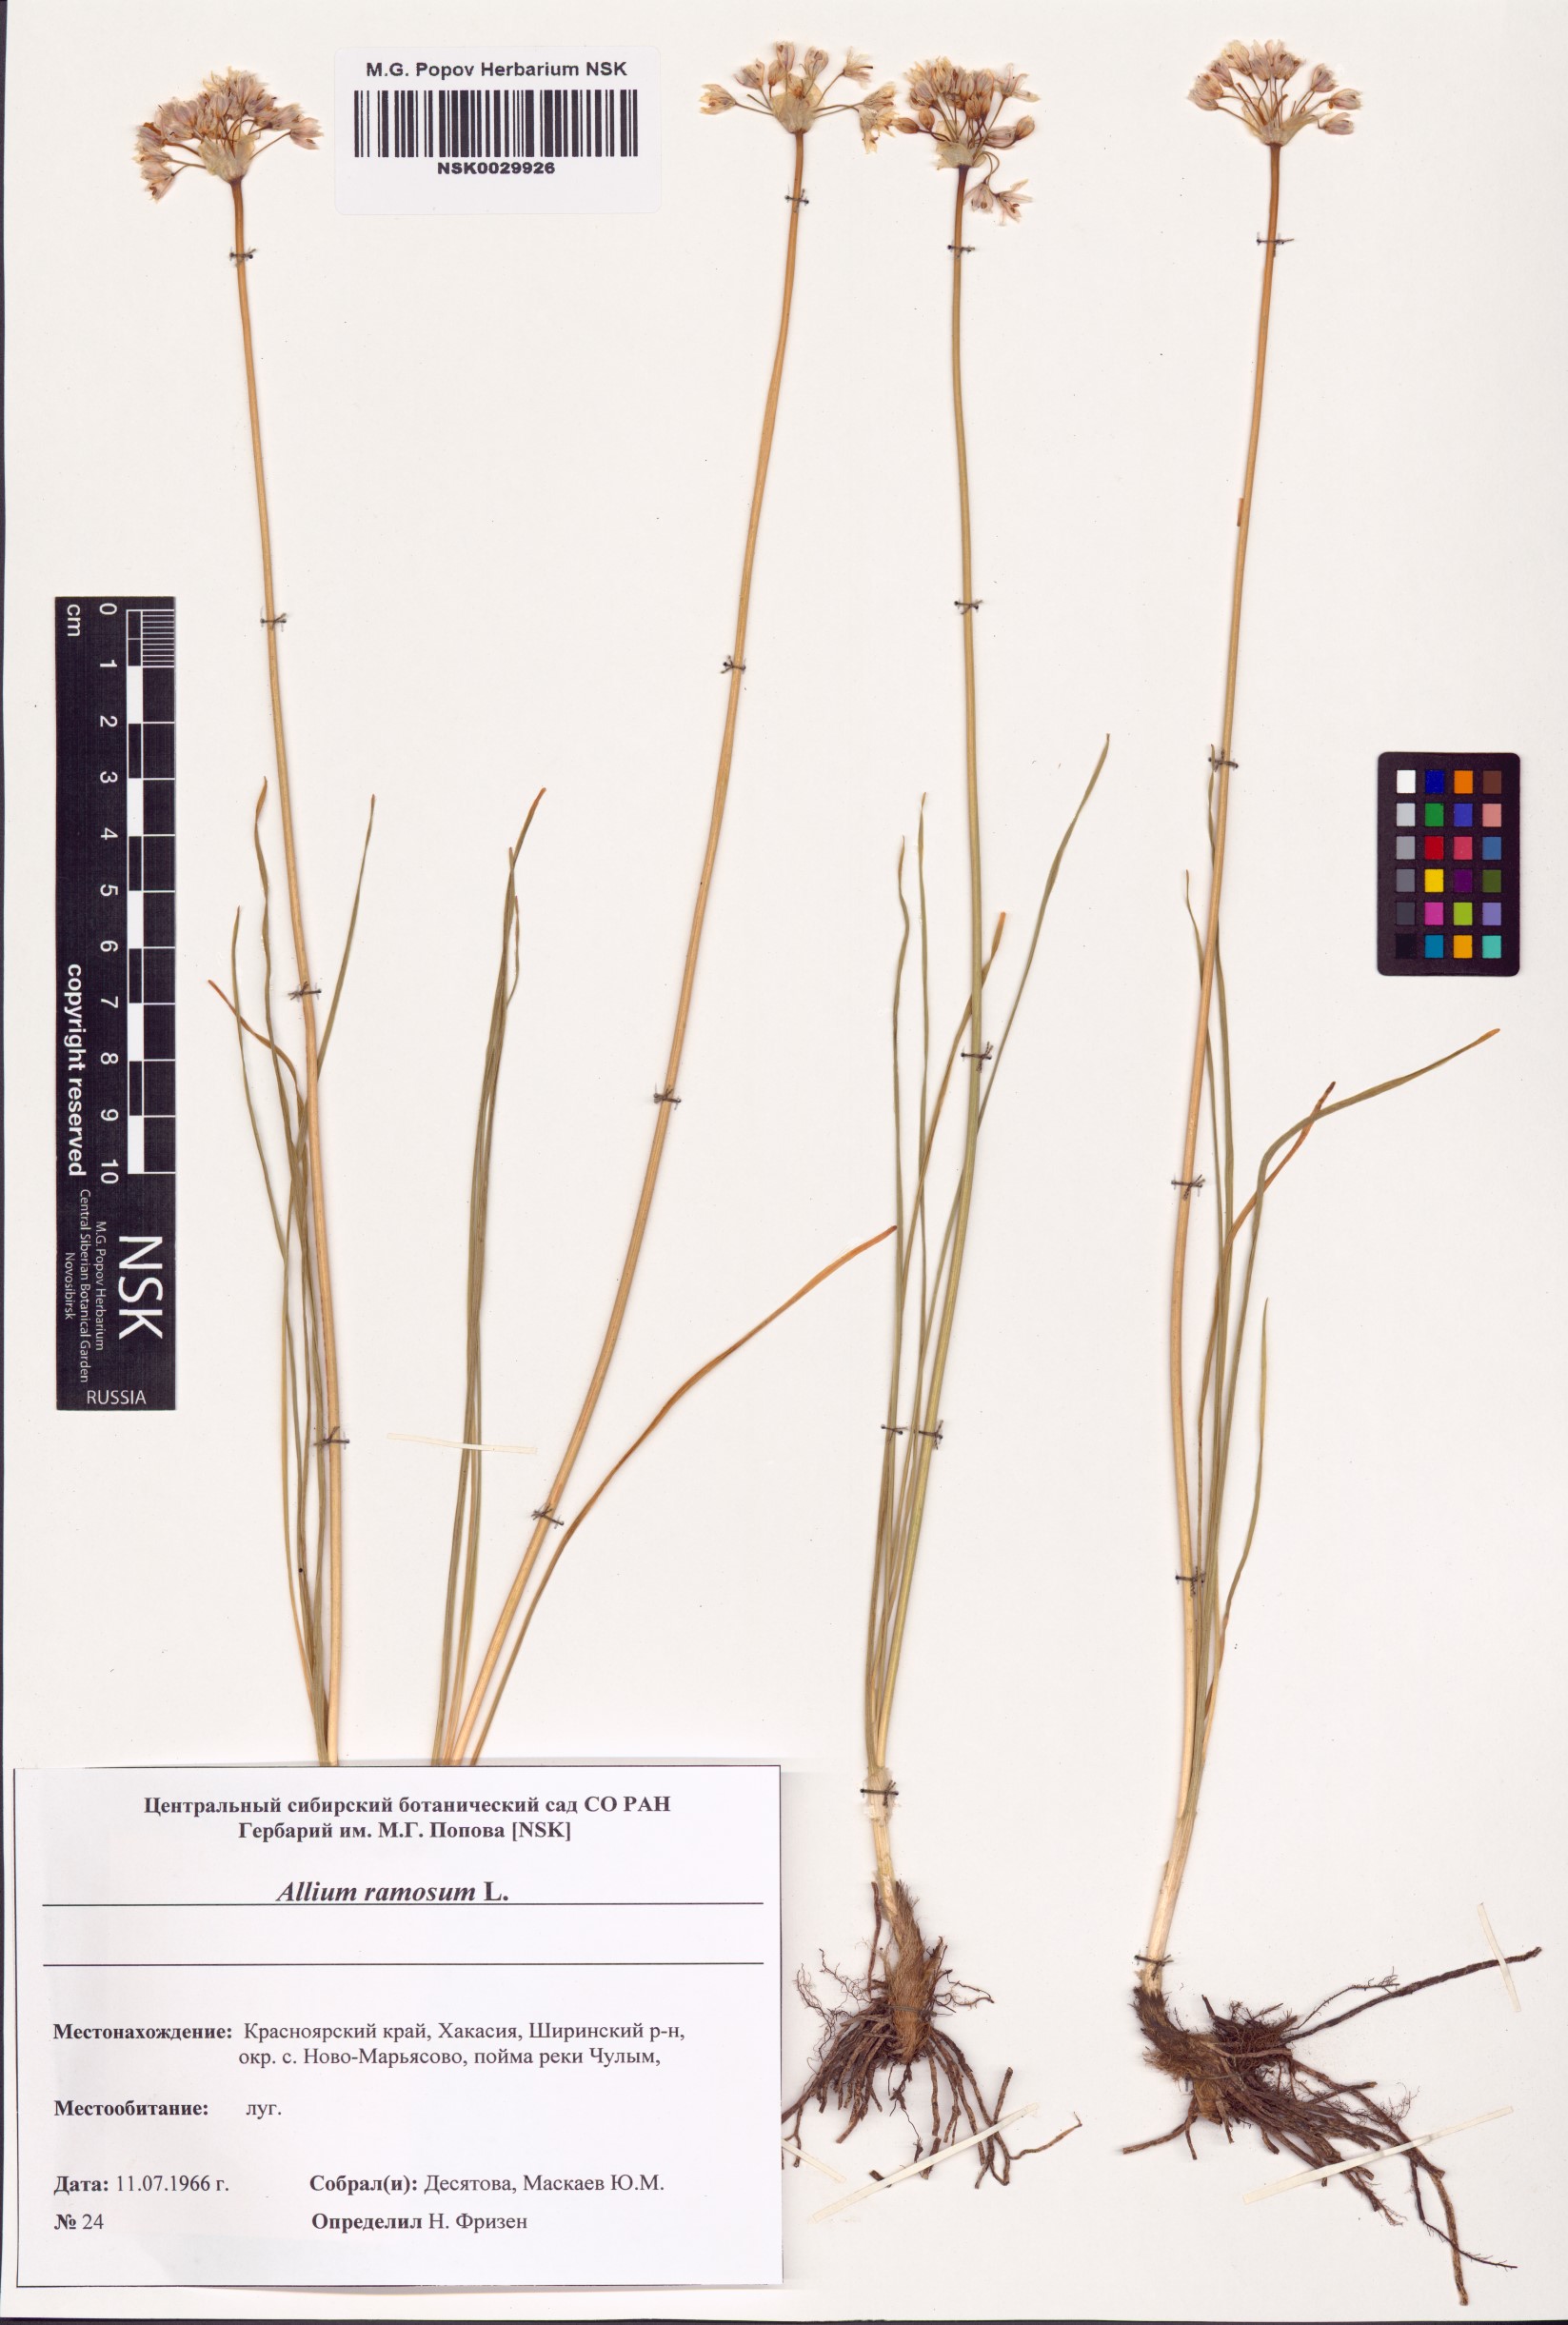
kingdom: Plantae
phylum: Tracheophyta
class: Liliopsida
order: Asparagales
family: Amaryllidaceae
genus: Allium
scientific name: Allium ramosum
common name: Fragrant garlic
